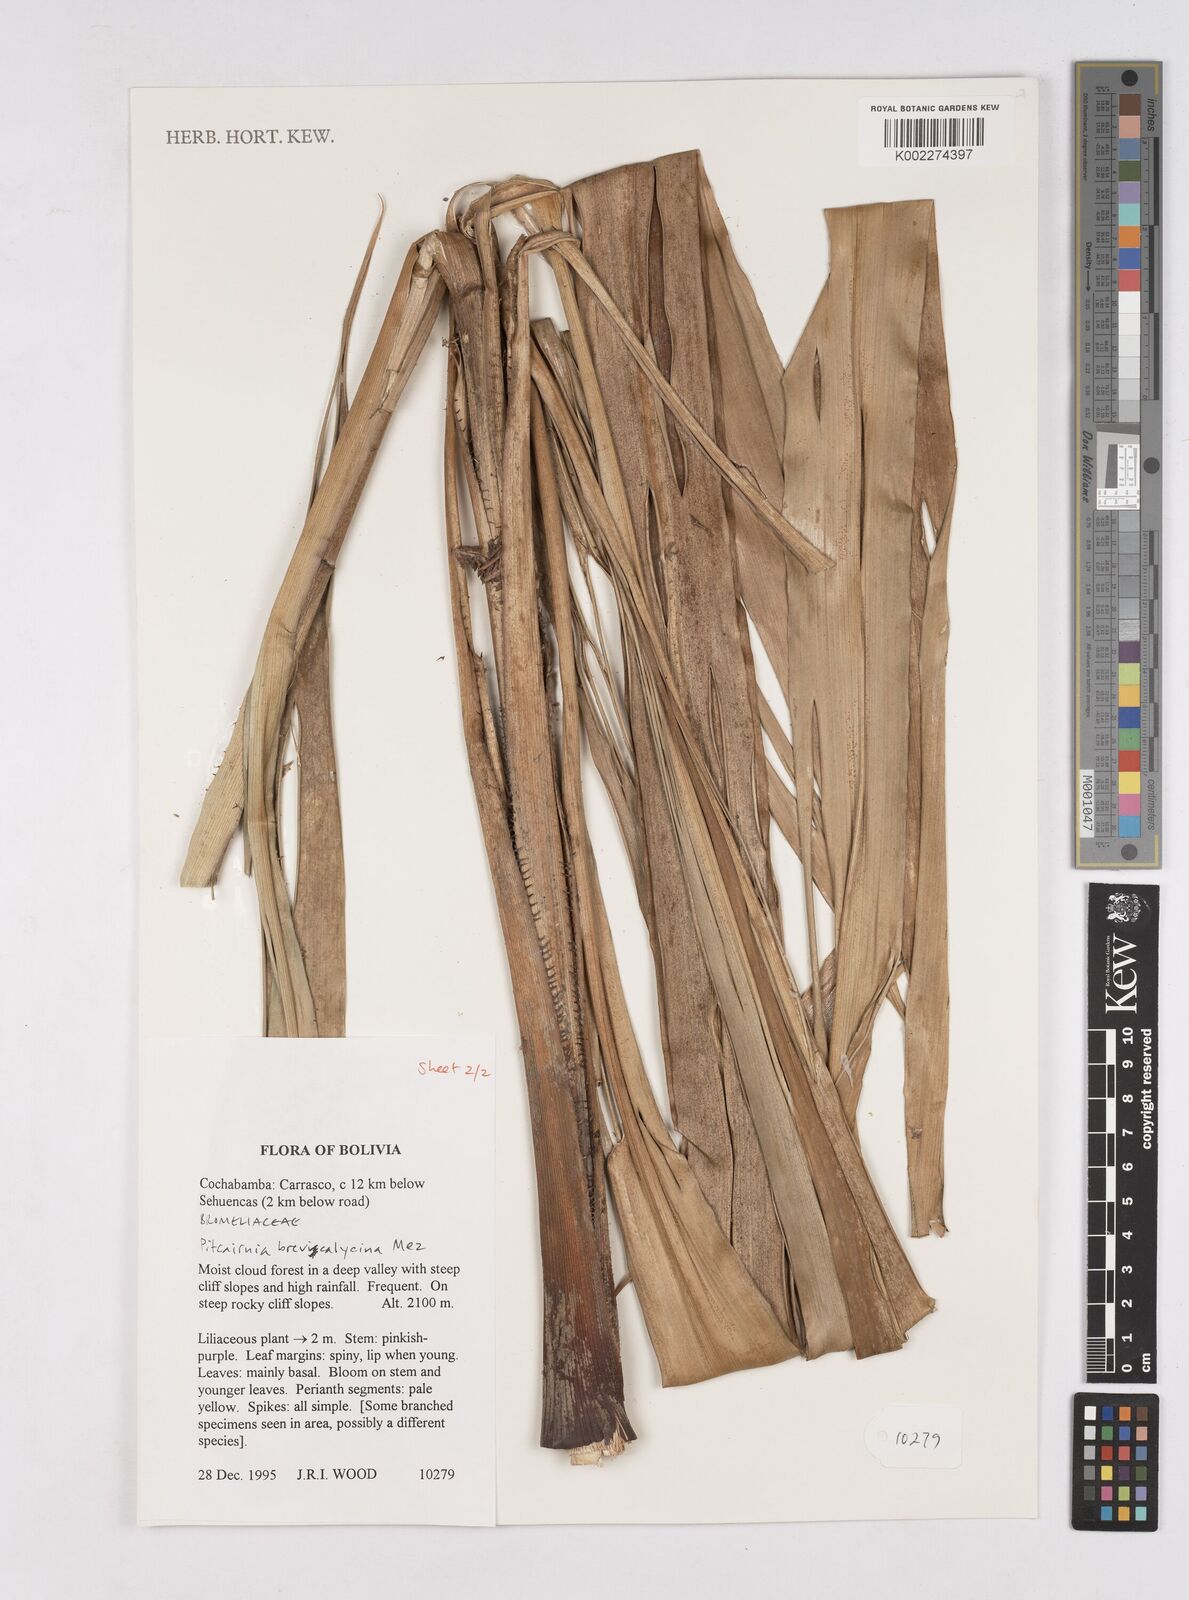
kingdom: Plantae
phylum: Tracheophyta
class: Liliopsida
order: Poales
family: Bromeliaceae
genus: Pitcairnia
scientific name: Pitcairnia brevicalycina
